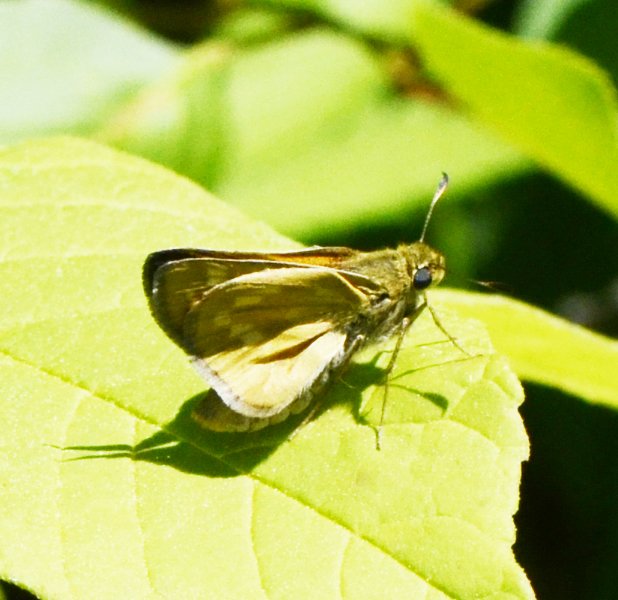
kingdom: Animalia
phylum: Arthropoda
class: Insecta
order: Lepidoptera
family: Hesperiidae
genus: Hesperia
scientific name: Hesperia sassacus
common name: Sassacus Skipper
